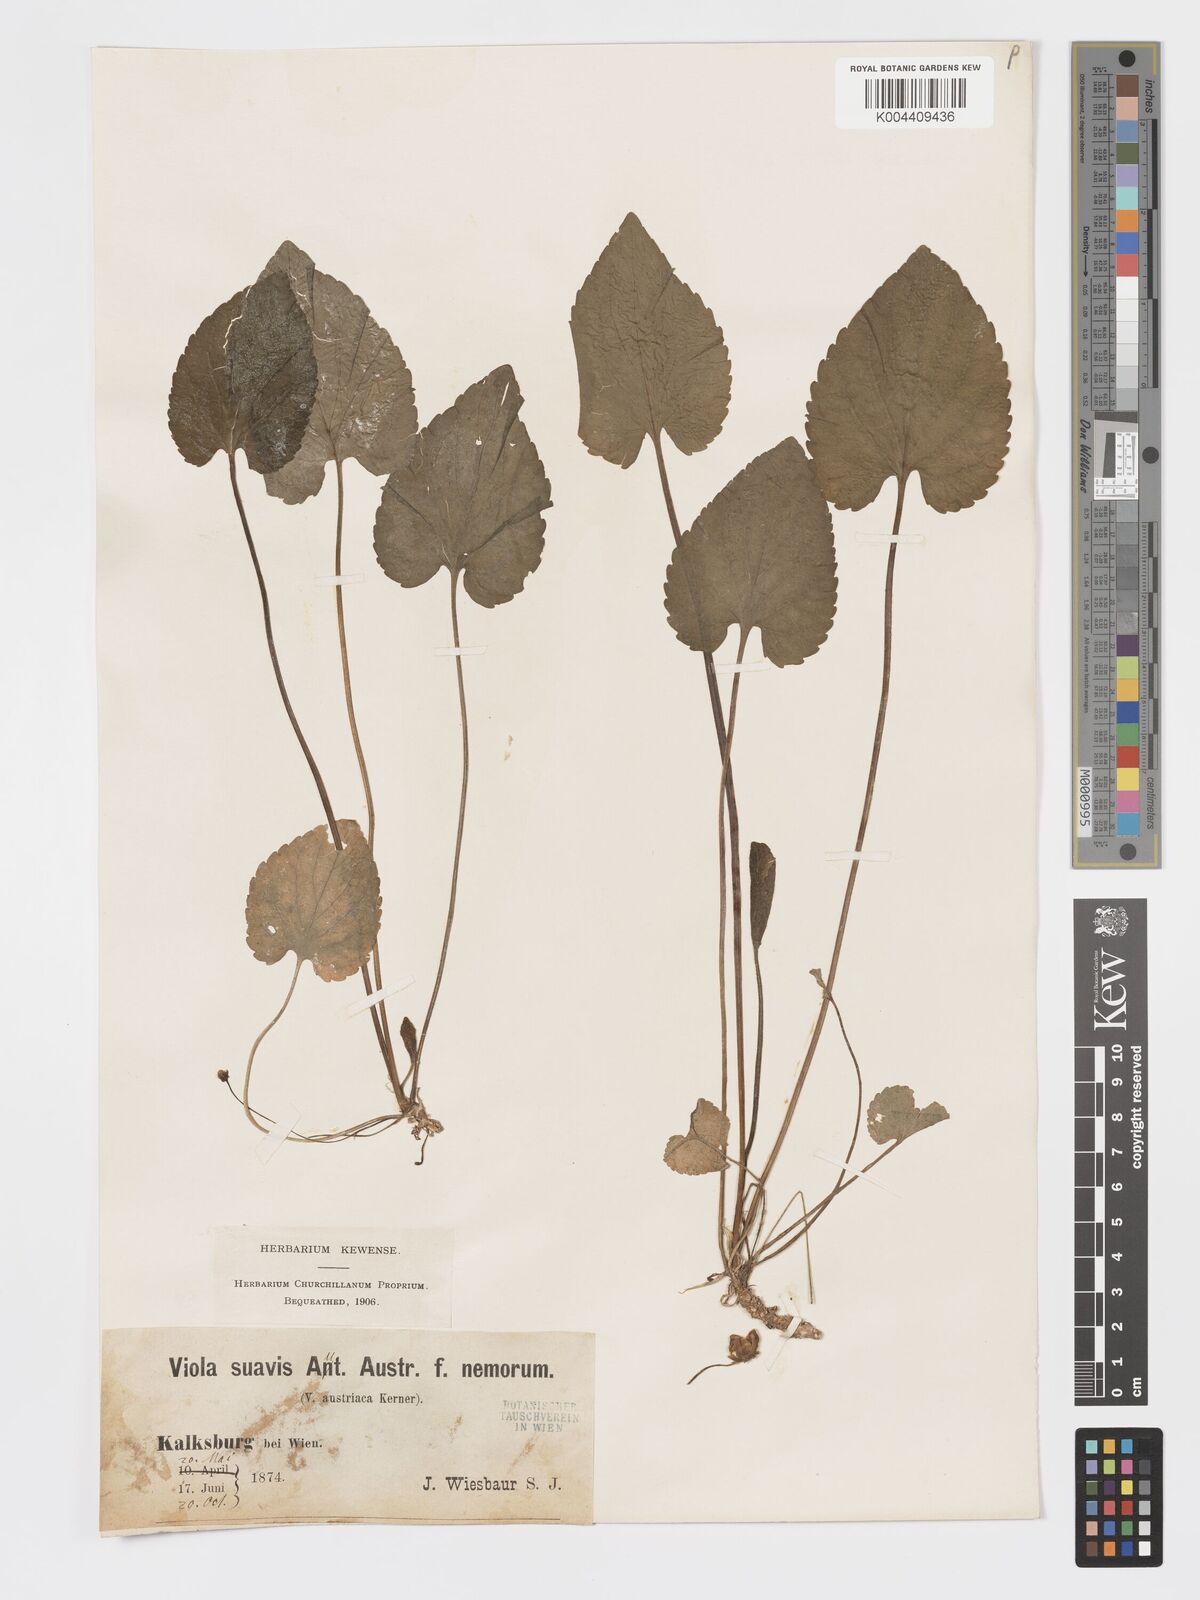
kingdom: Plantae
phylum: Tracheophyta
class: Magnoliopsida
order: Malpighiales
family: Violaceae
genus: Viola
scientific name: Viola kalksburgensis
